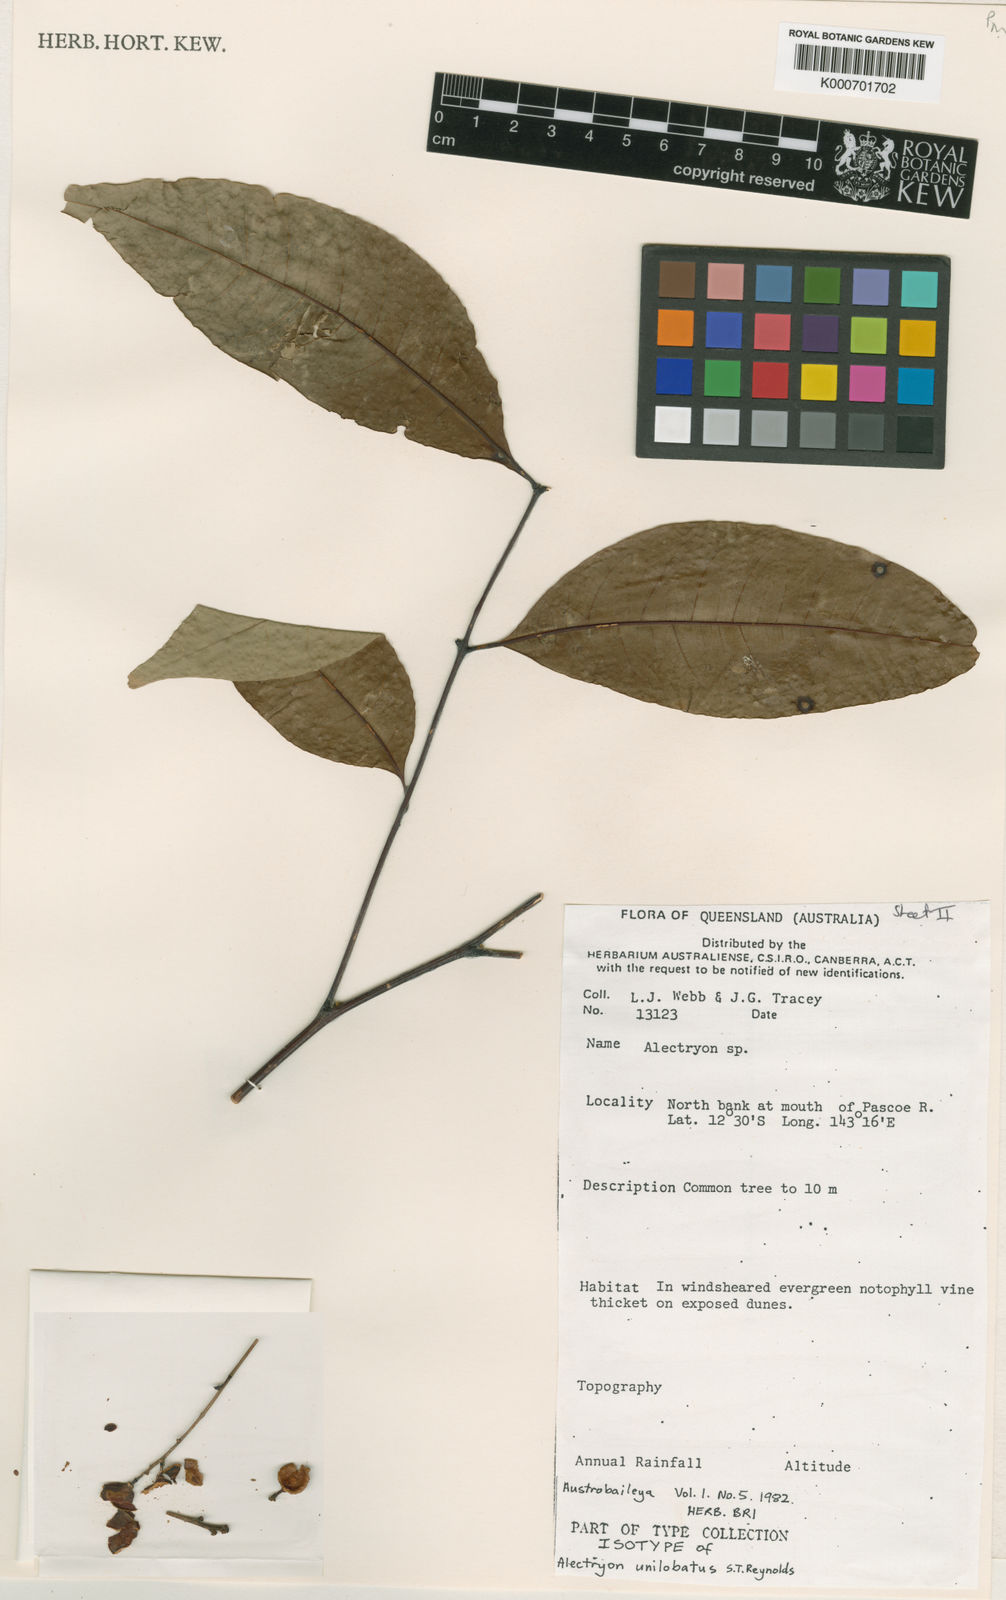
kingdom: Plantae
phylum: Tracheophyta
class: Magnoliopsida
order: Sapindales
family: Sapindaceae
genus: Alectryon
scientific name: Alectryon unilobatus
